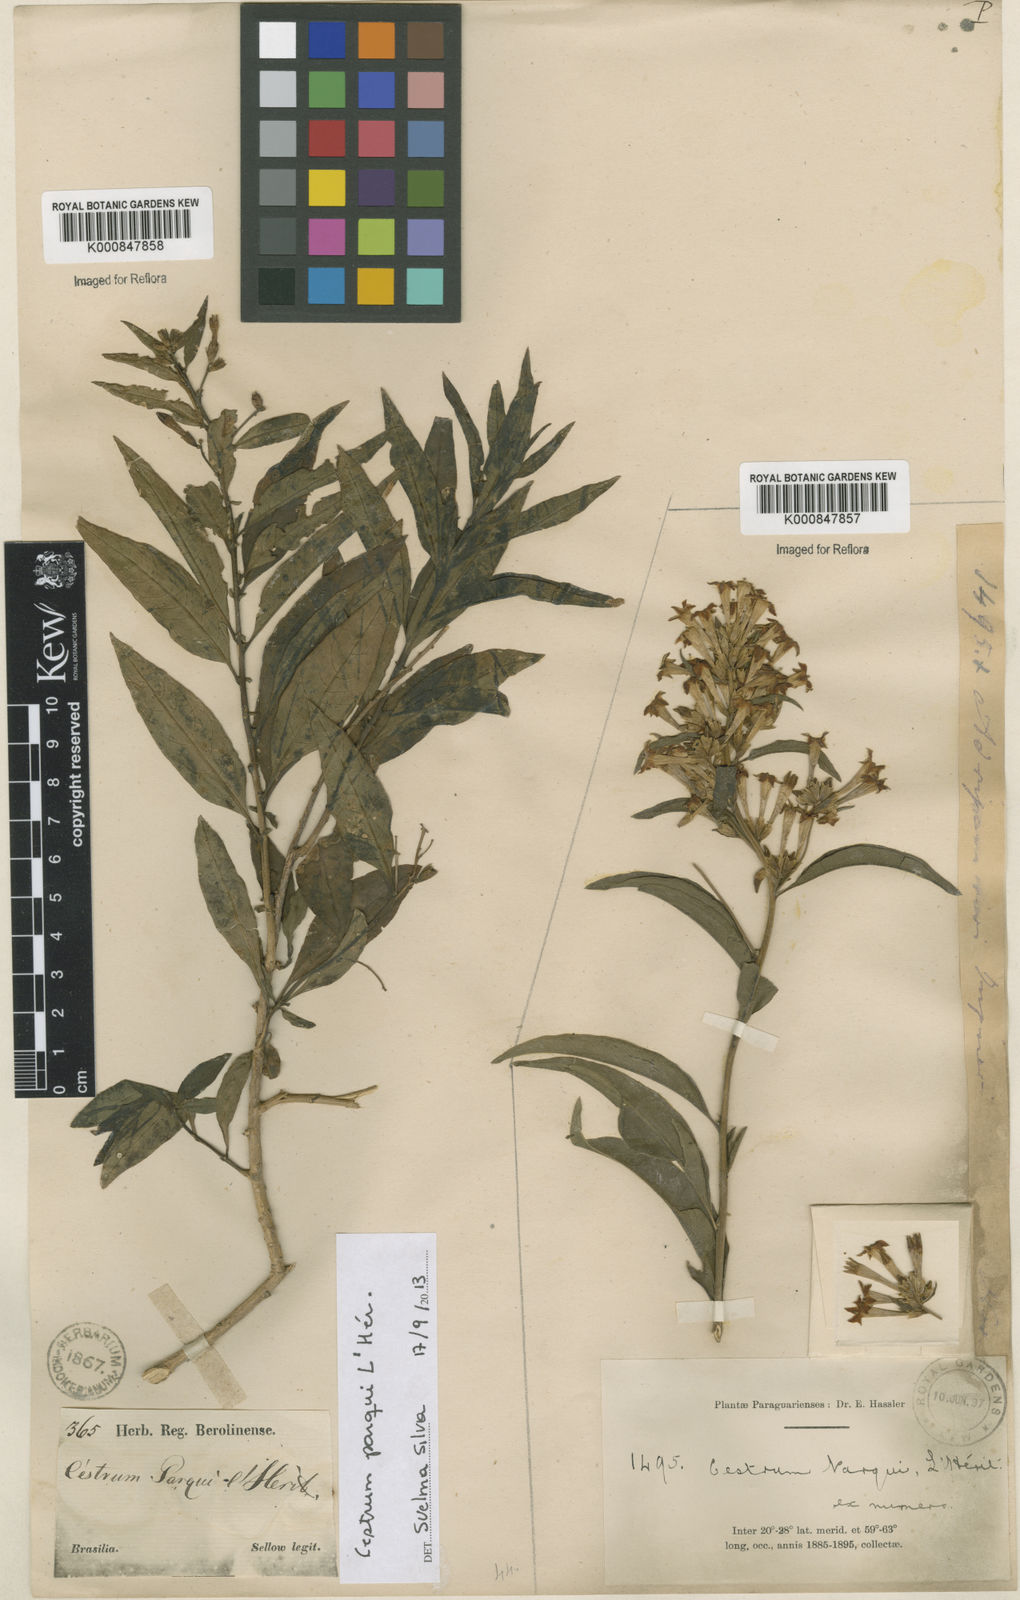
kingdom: Plantae
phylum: Tracheophyta
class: Magnoliopsida
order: Solanales
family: Solanaceae
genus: Cestrum
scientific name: Cestrum
